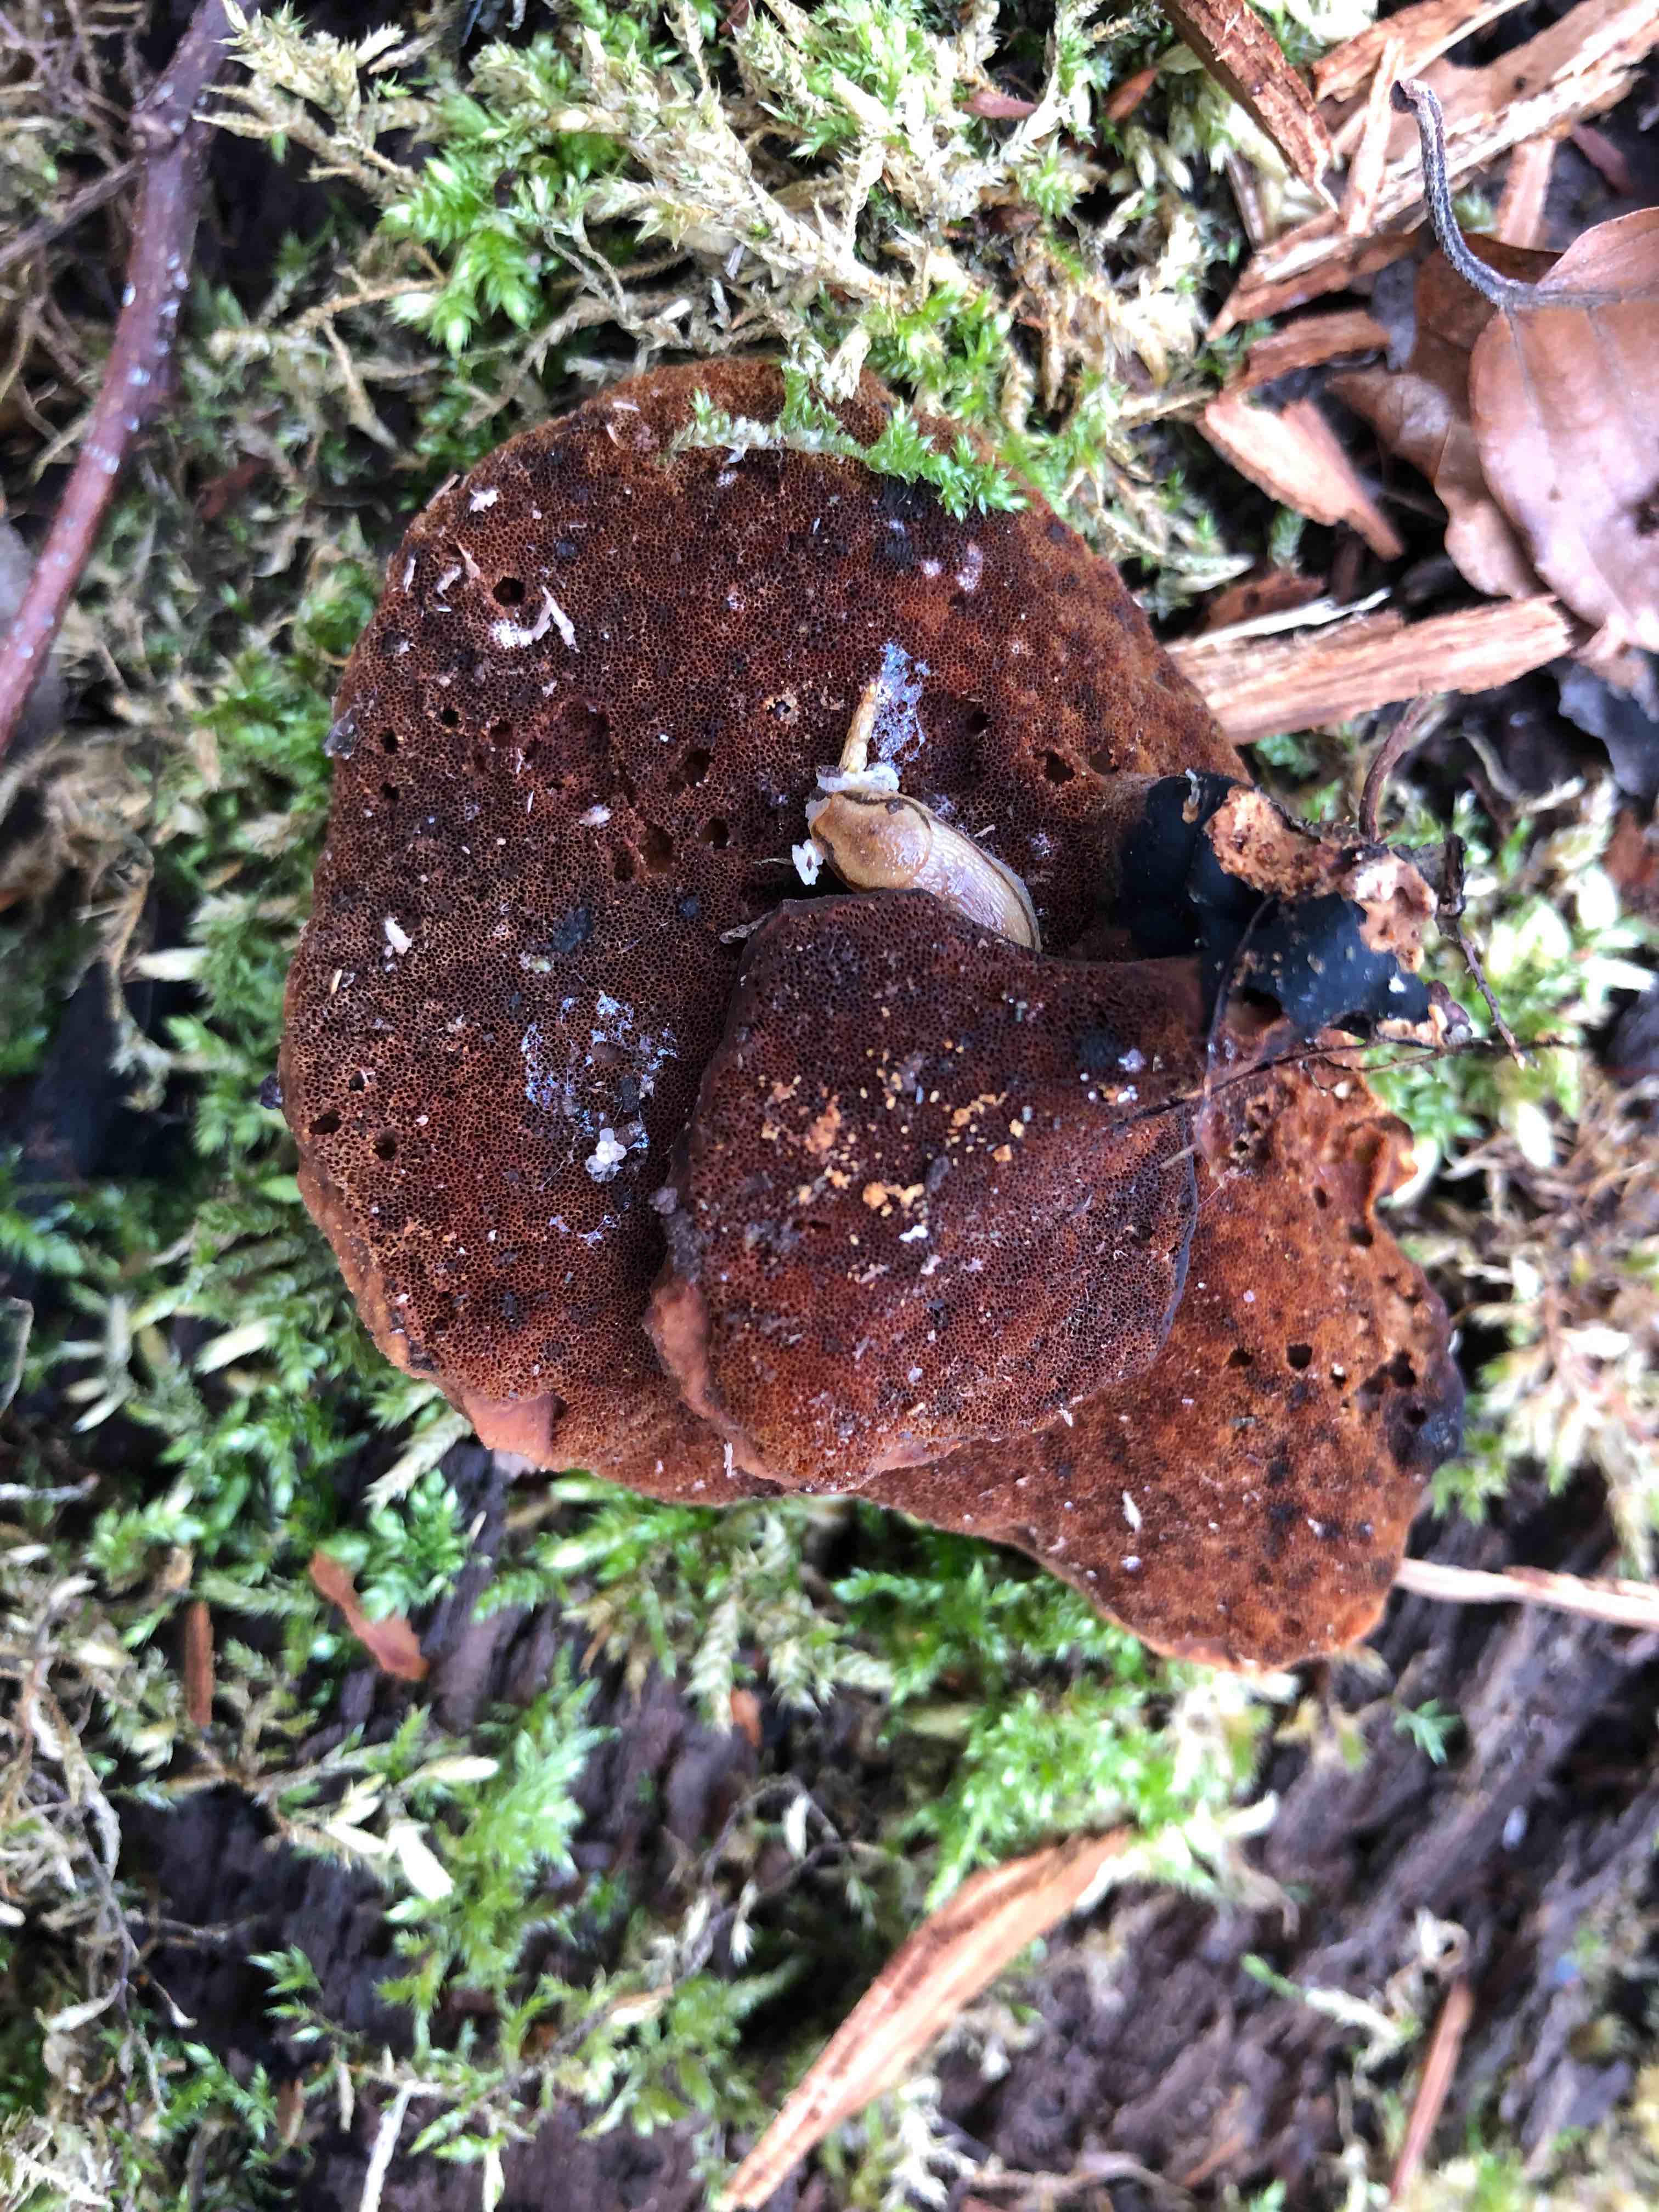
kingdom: Fungi
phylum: Basidiomycota
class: Agaricomycetes
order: Polyporales
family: Polyporaceae
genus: Cerioporus
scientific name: Cerioporus varius
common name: foranderlig stilkporesvamp
